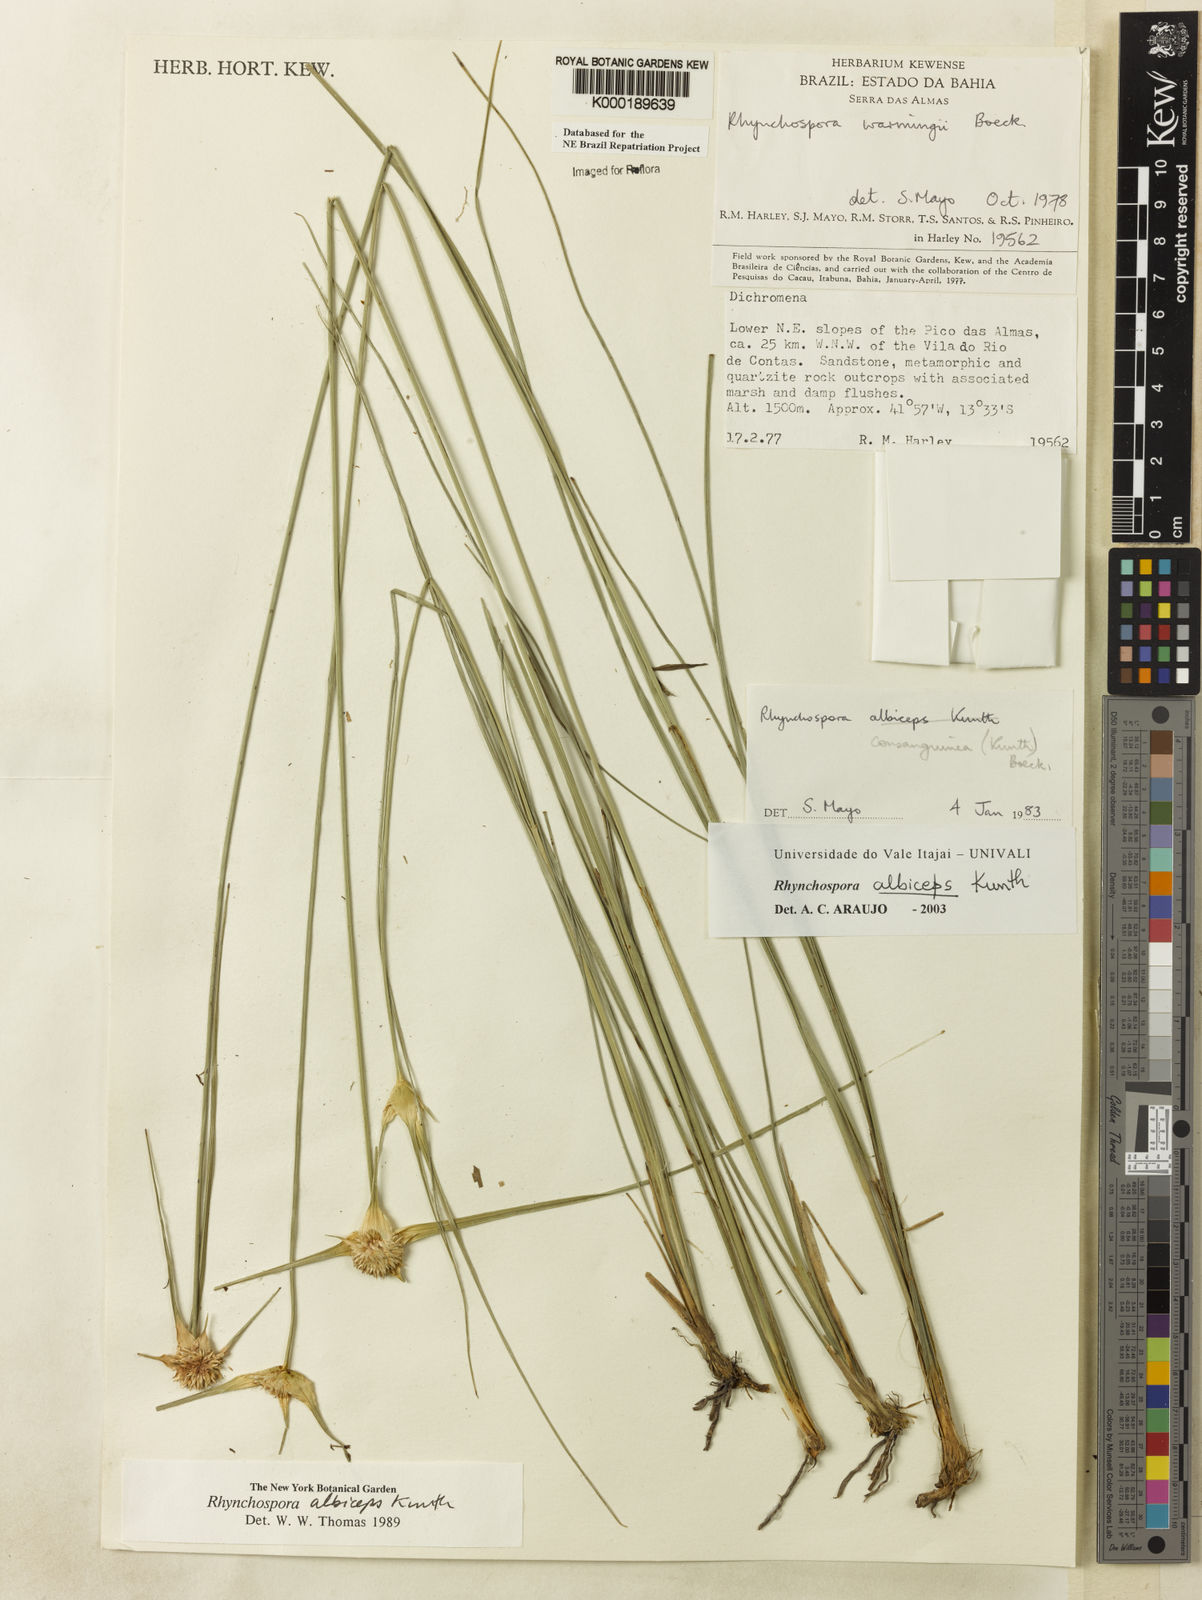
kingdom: Plantae
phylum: Tracheophyta
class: Liliopsida
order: Poales
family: Cyperaceae
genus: Rhynchospora
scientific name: Rhynchospora albiceps
